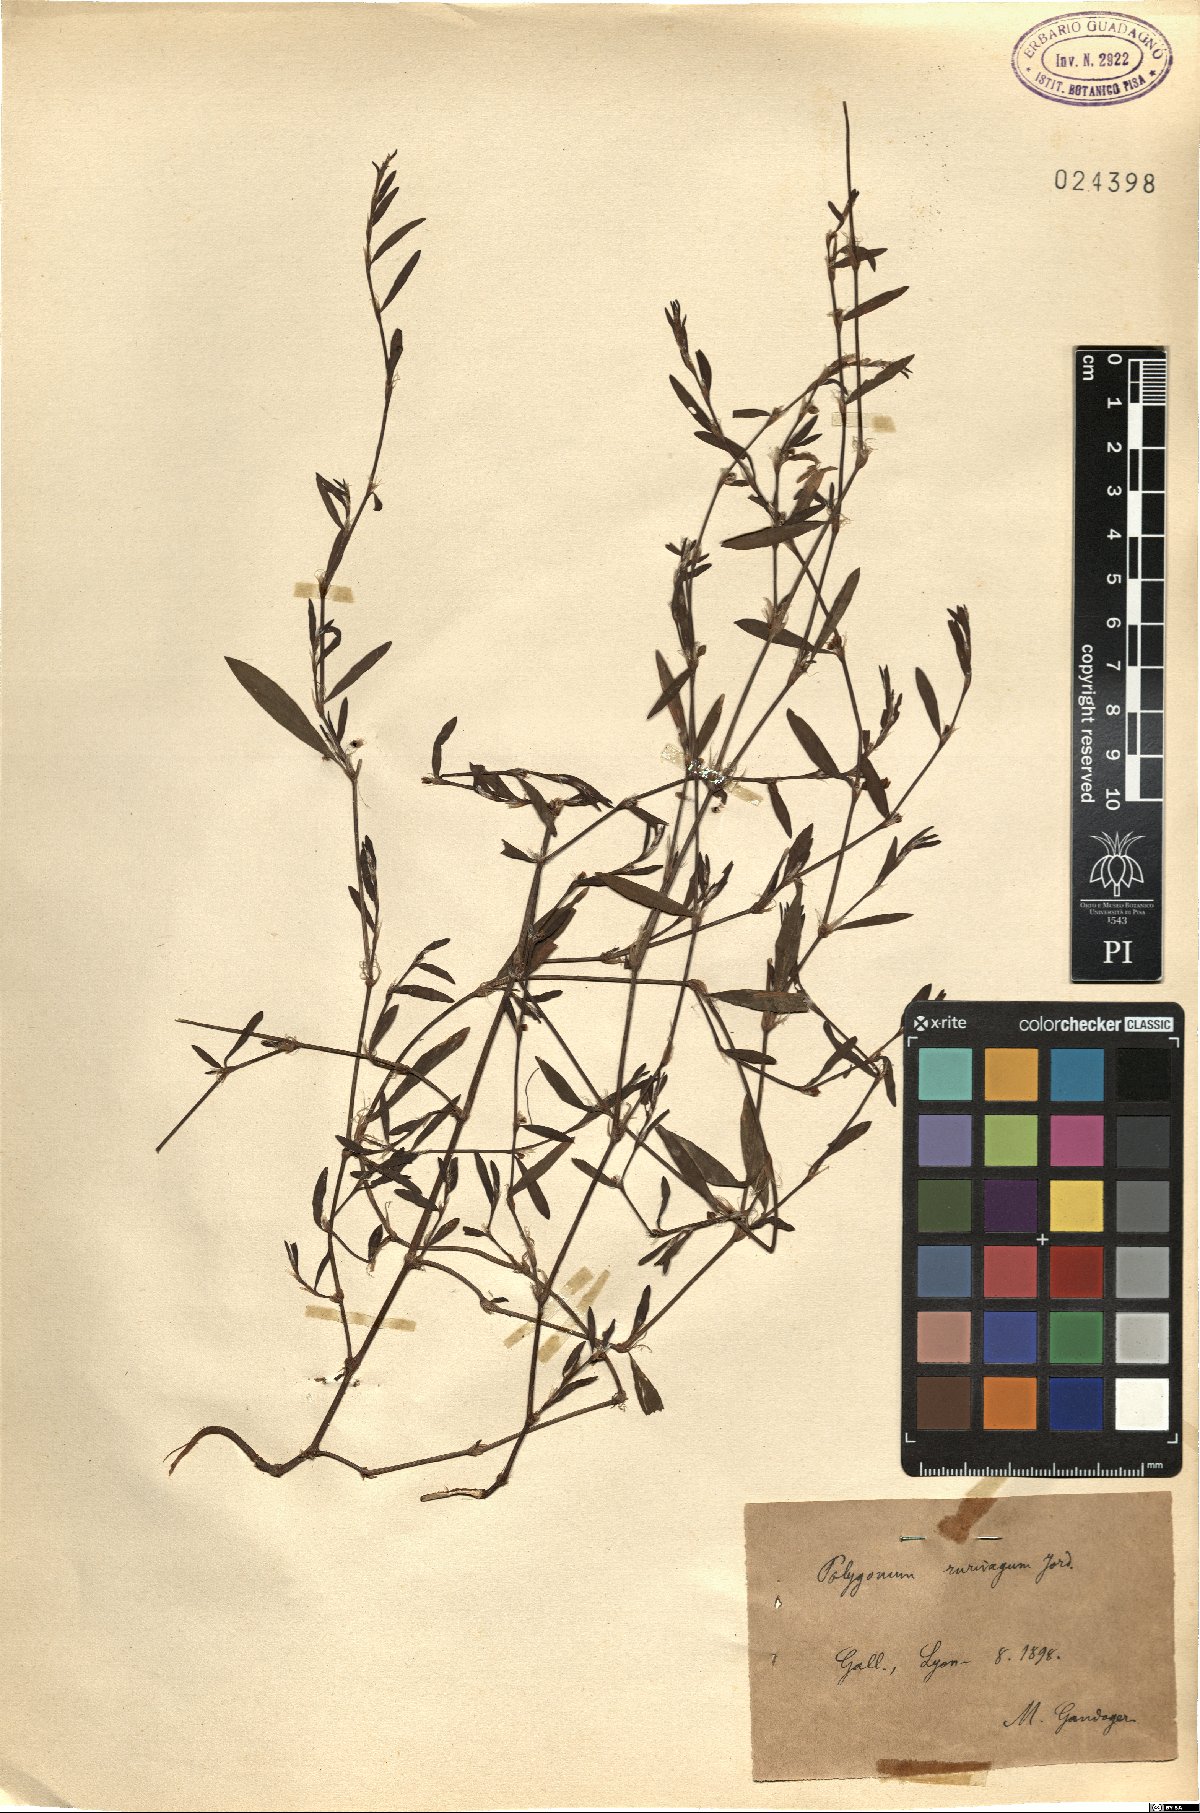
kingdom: Plantae
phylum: Tracheophyta
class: Magnoliopsida
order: Caryophyllales
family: Polygonaceae
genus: Polygonum
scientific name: Polygonum aviculare
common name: Prostrate knotweed
